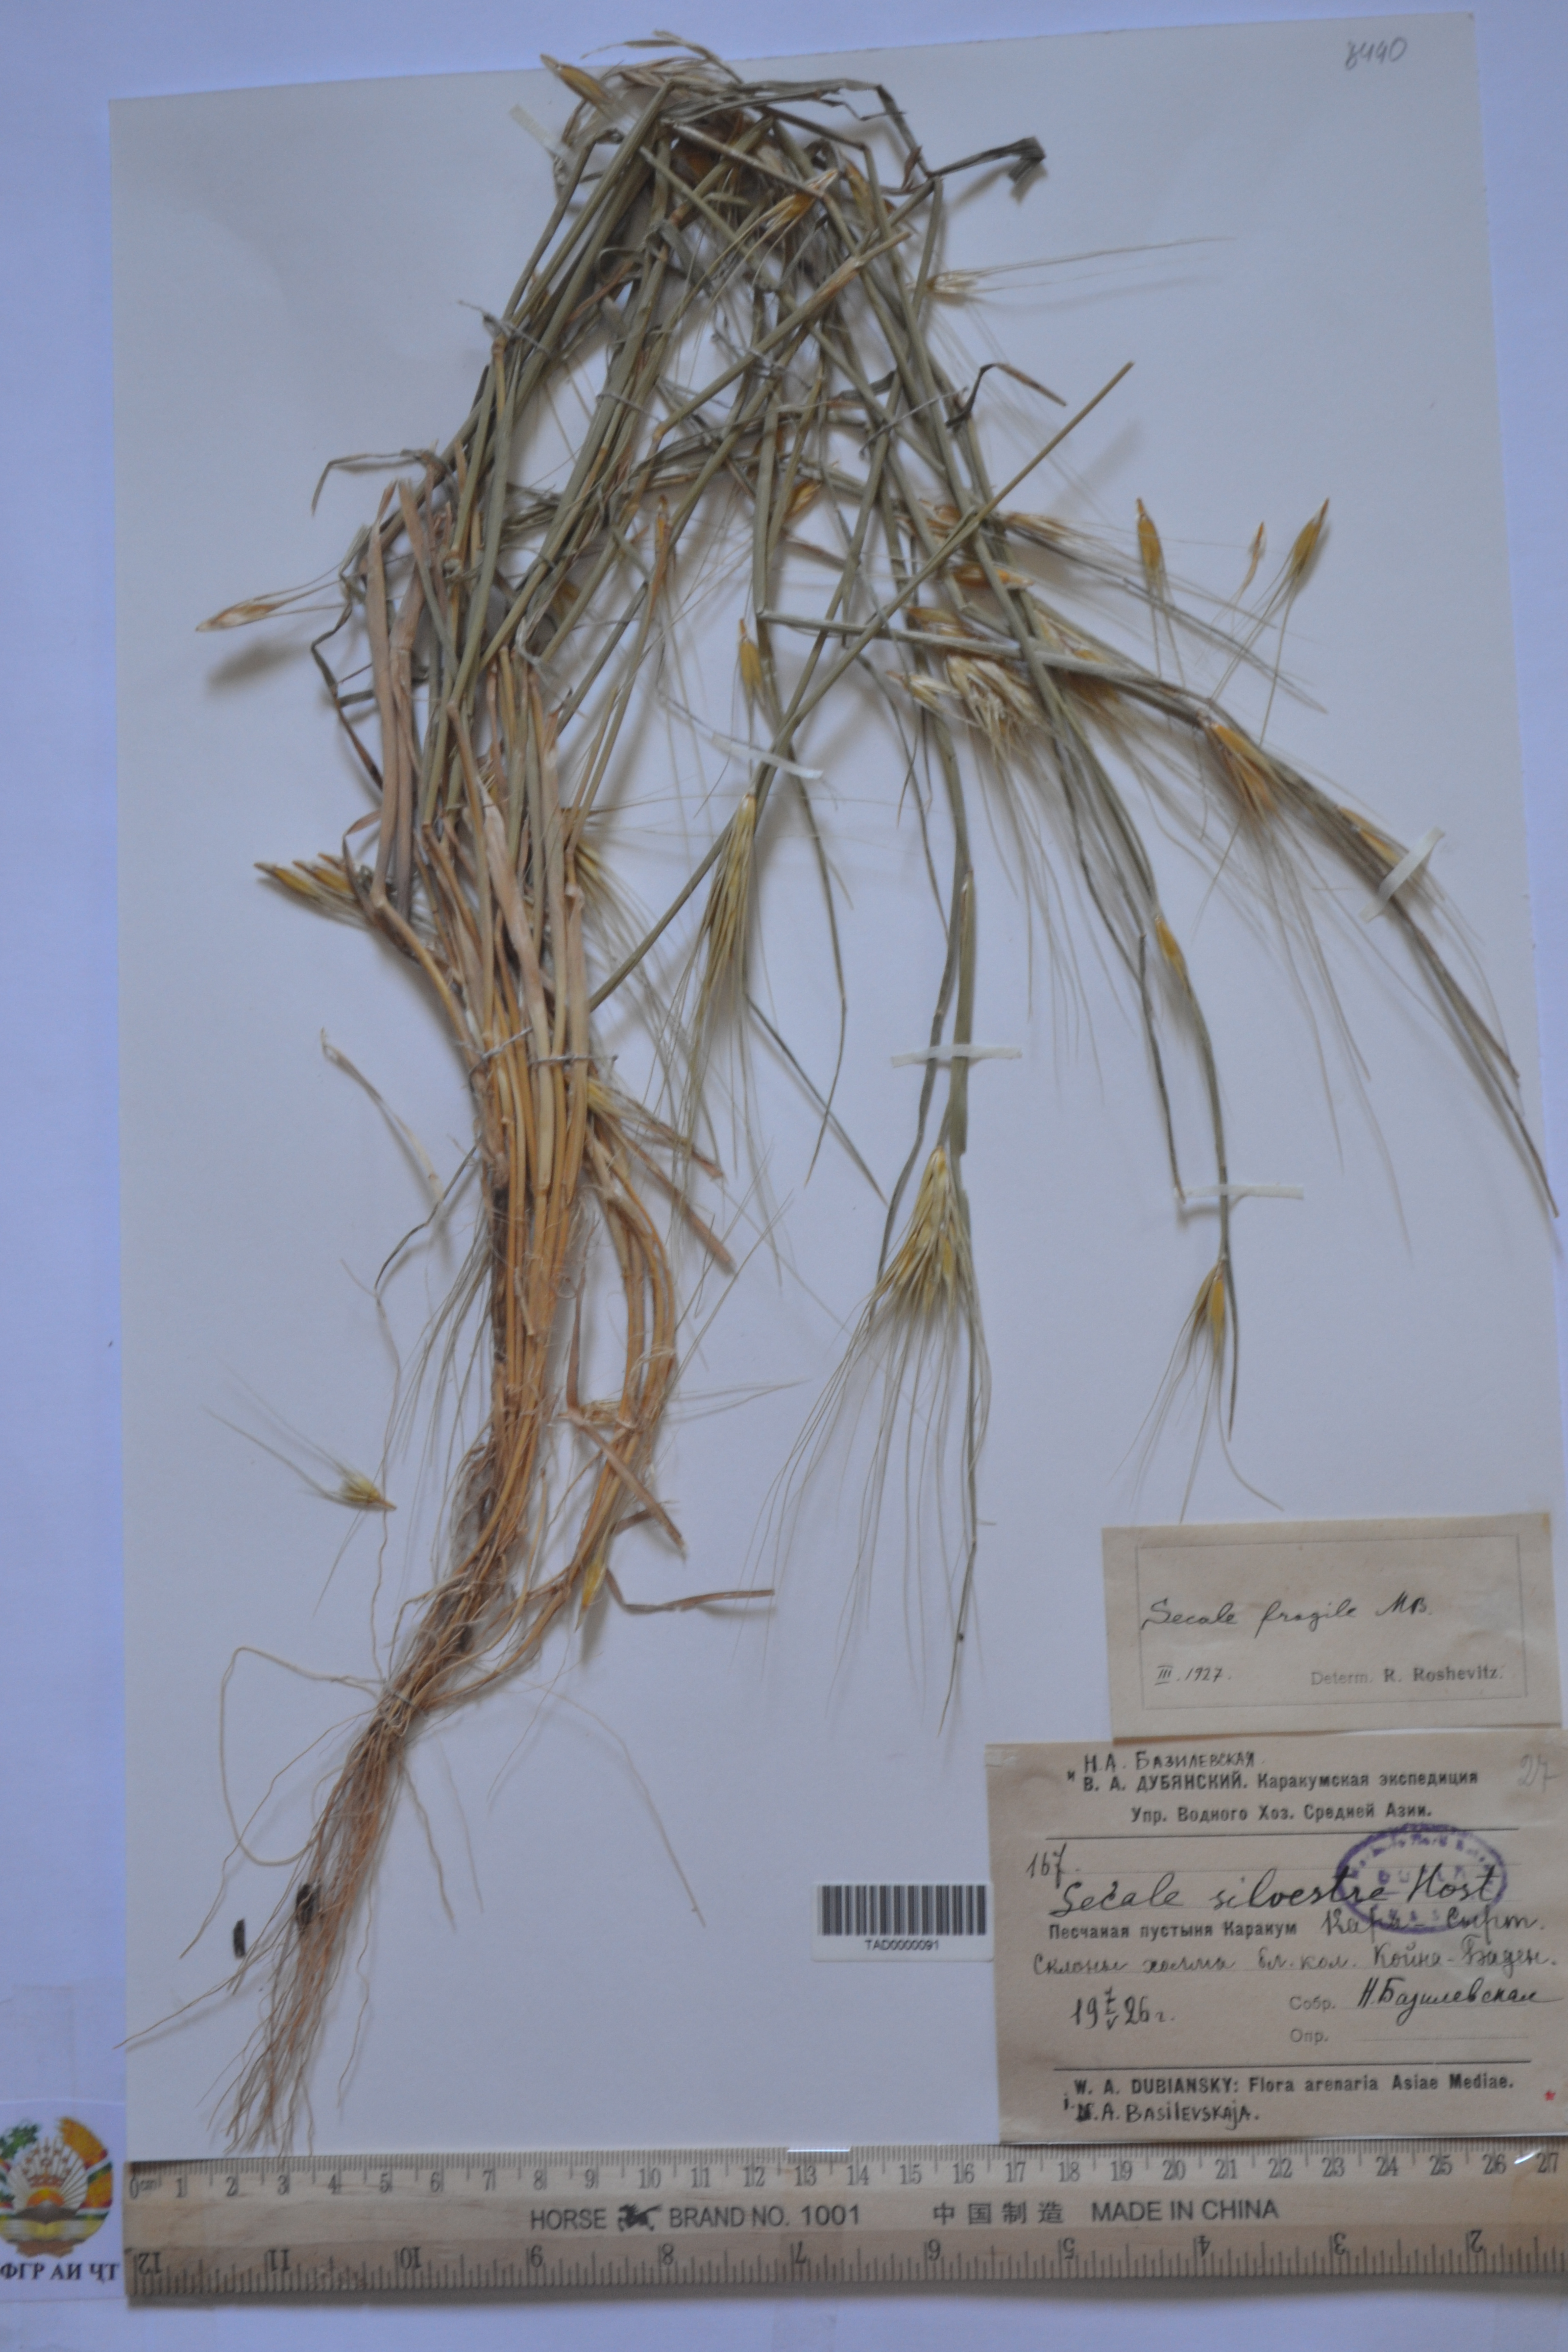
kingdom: Plantae
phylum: Tracheophyta
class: Liliopsida
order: Poales
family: Poaceae
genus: Secale
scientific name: Secale sylvestre
